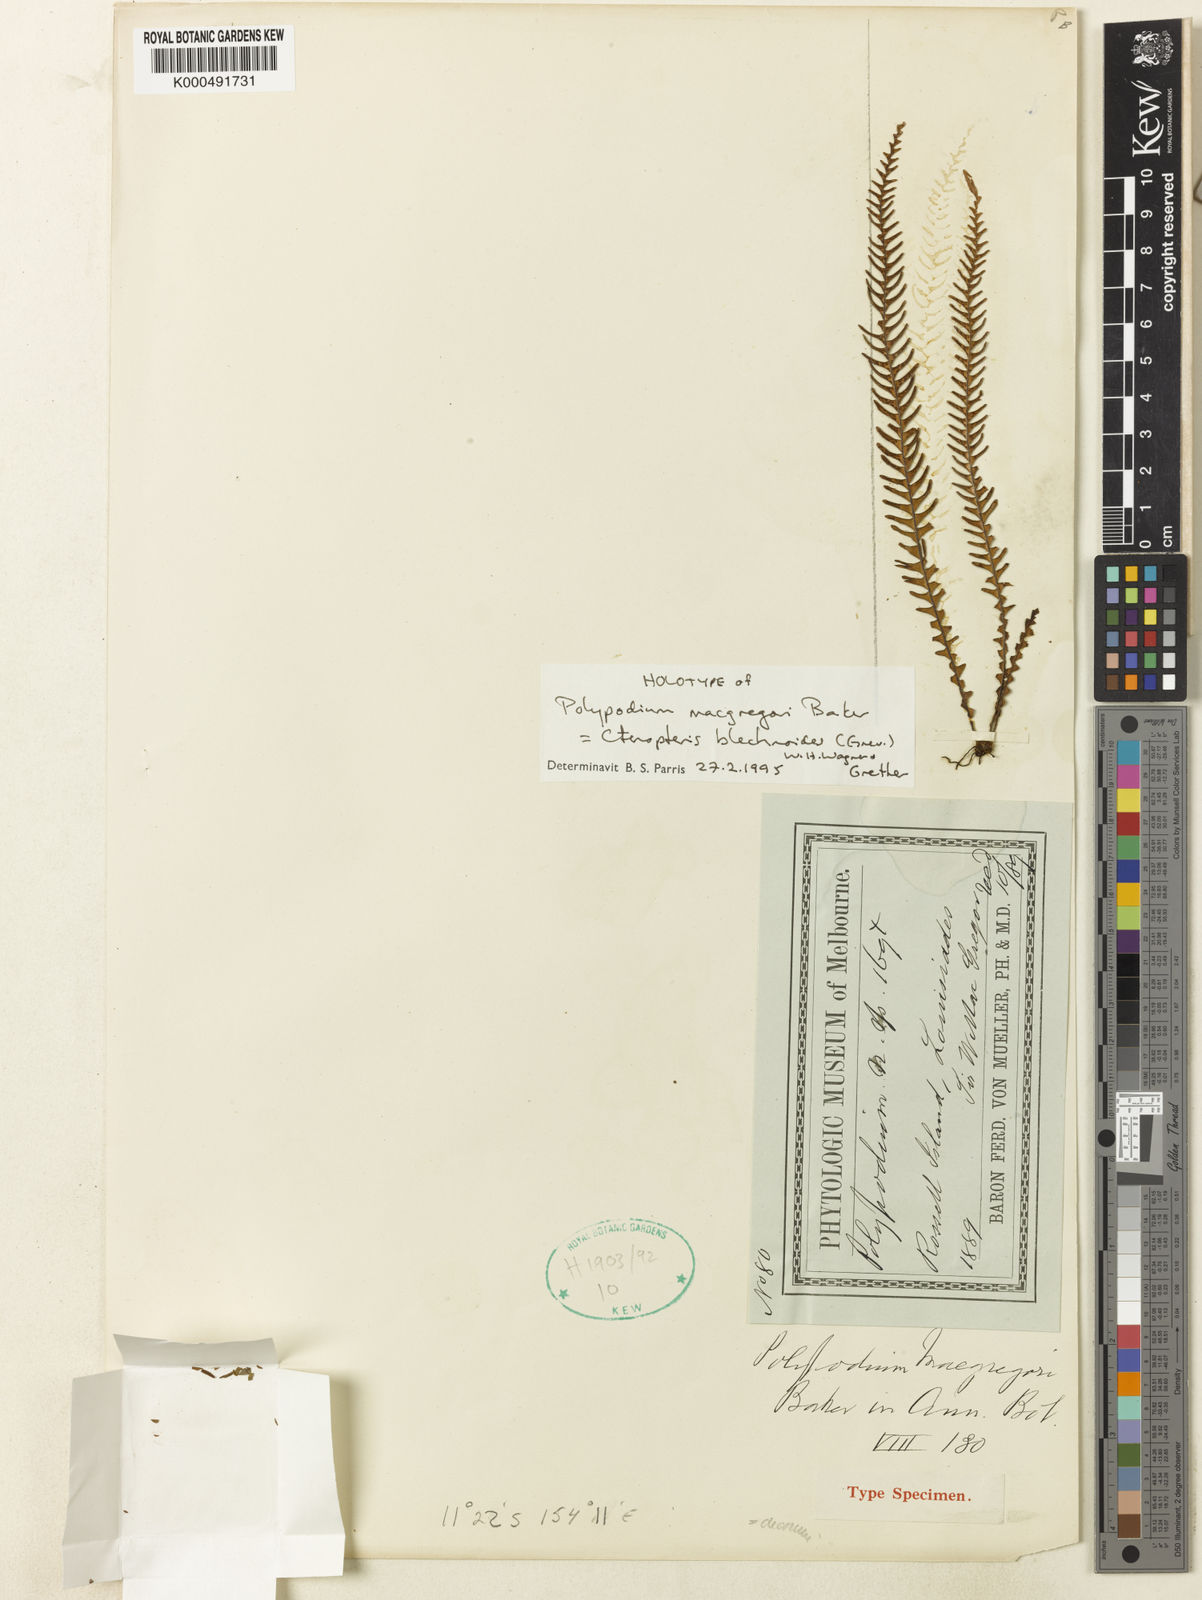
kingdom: Plantae
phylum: Tracheophyta
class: Polypodiopsida
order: Polypodiales
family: Polypodiaceae
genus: Ctenopterella
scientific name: Ctenopterella blechnoides
